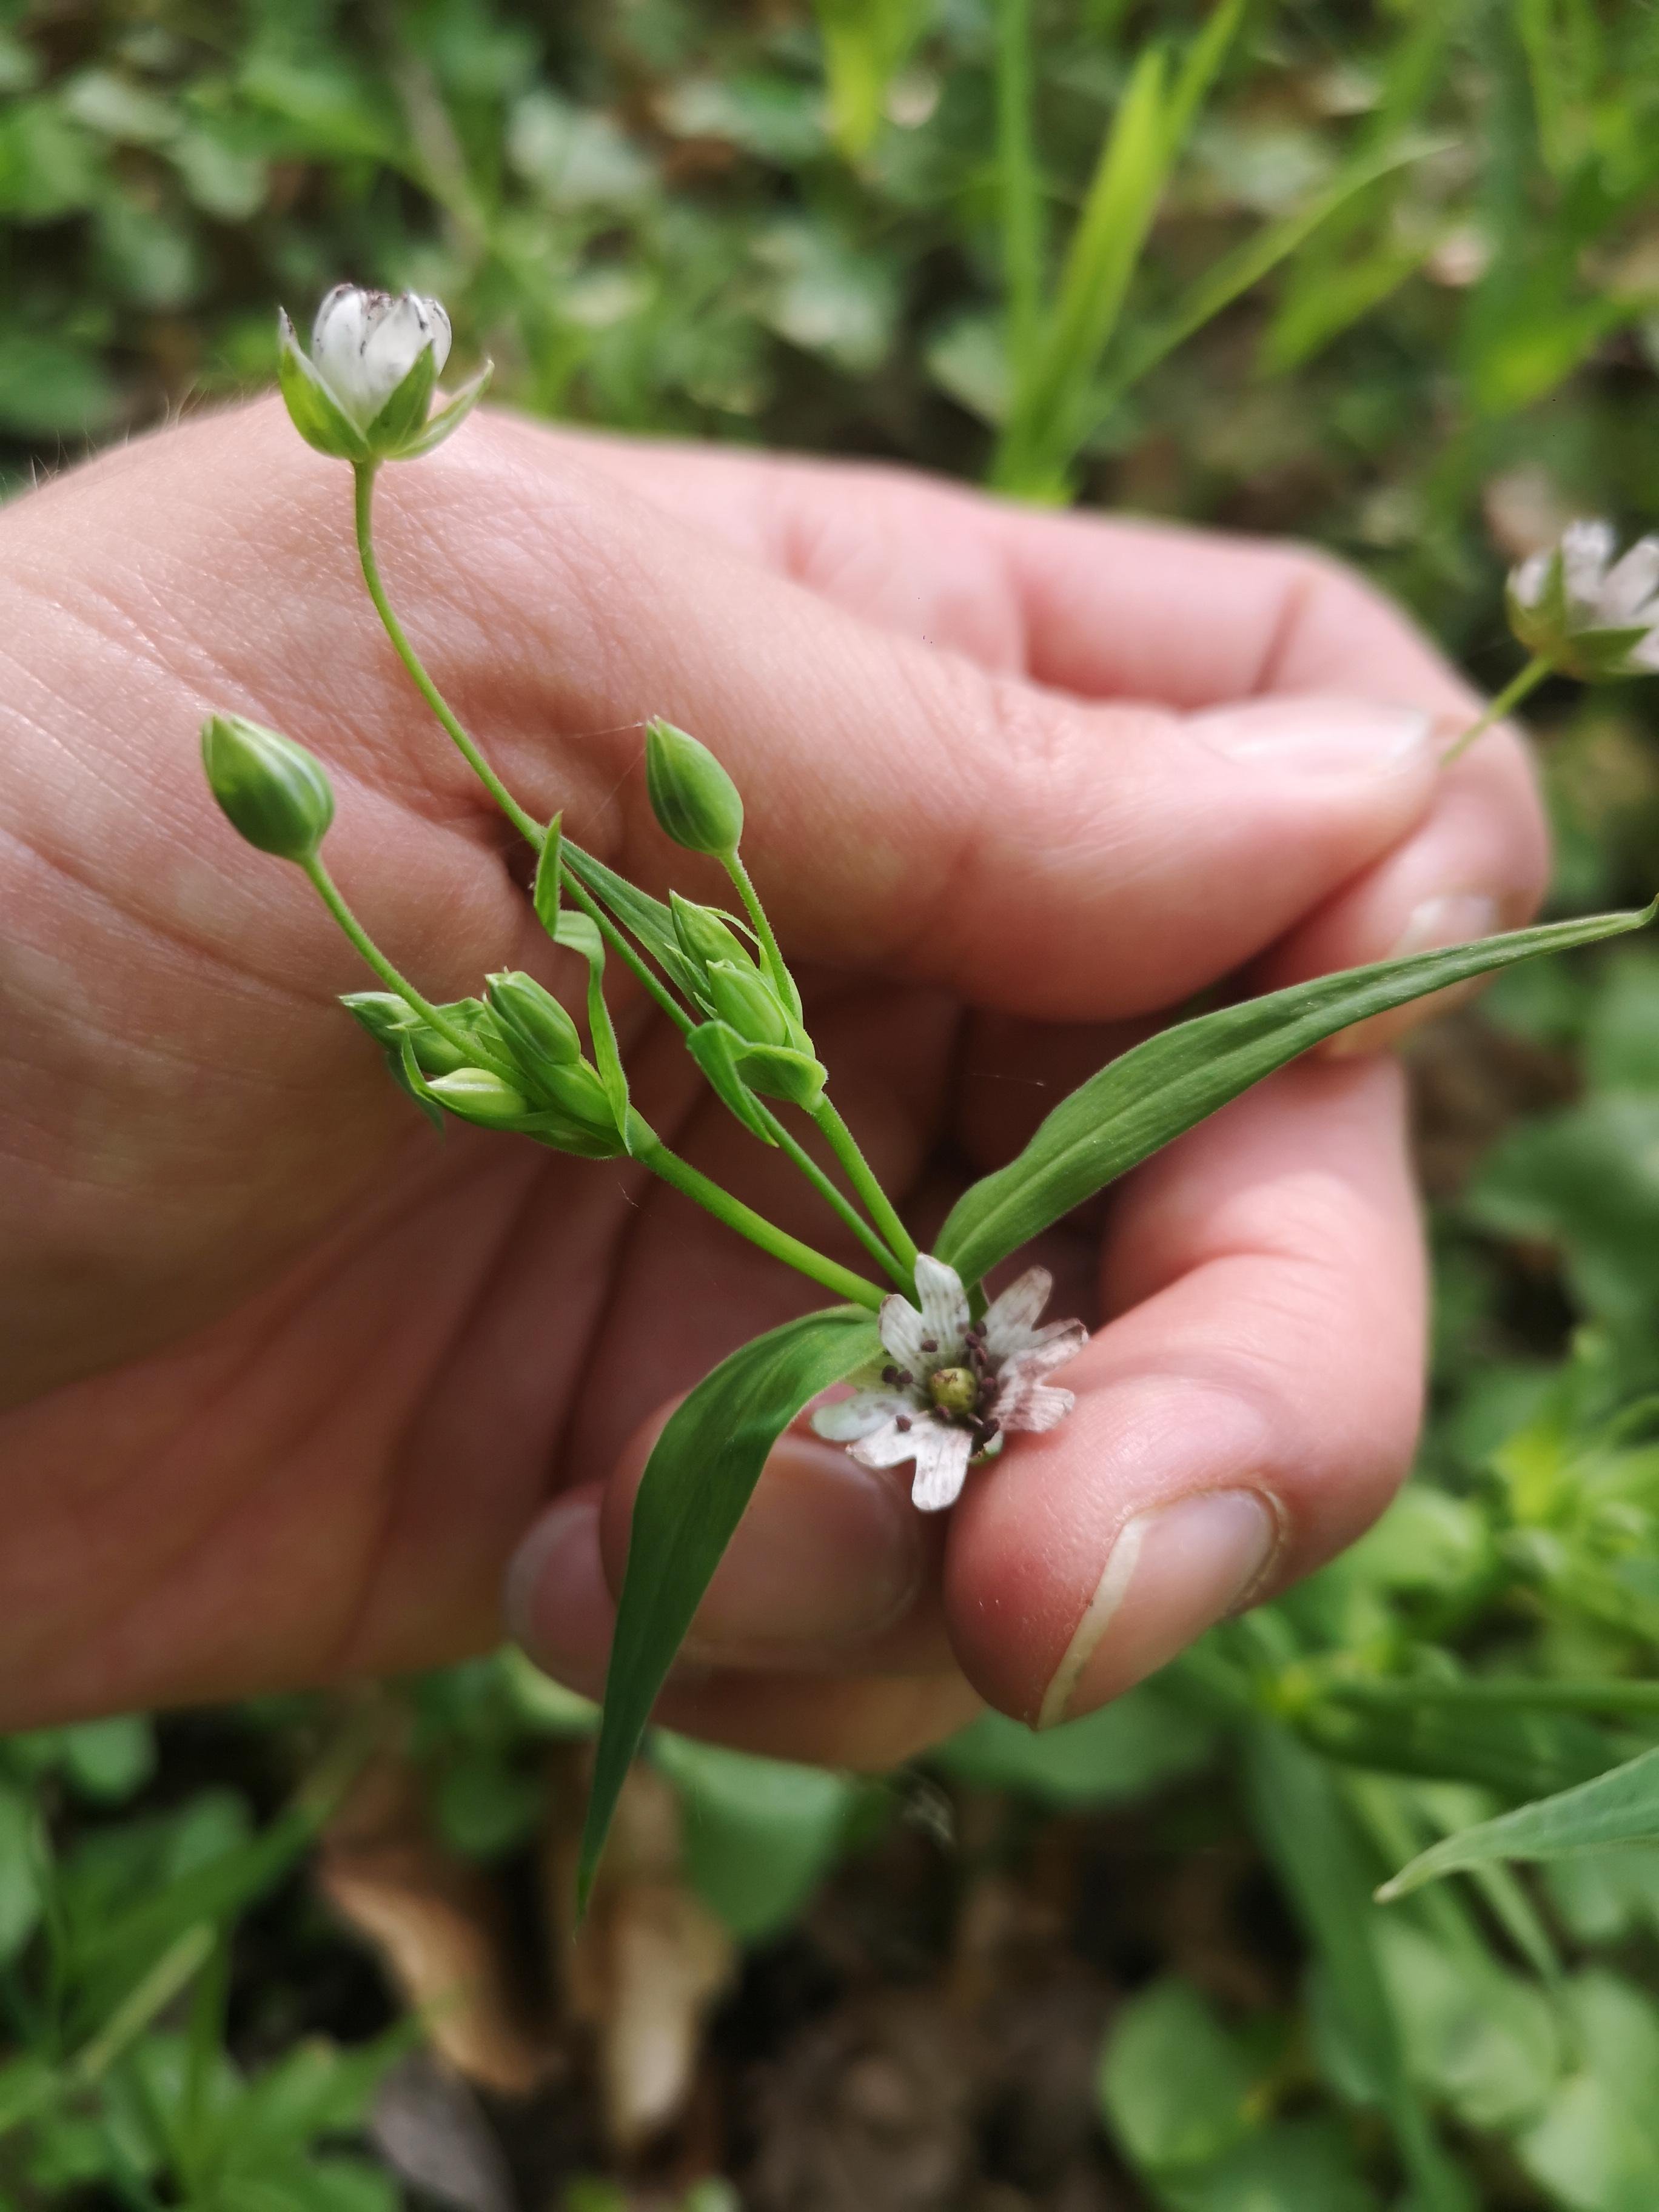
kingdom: Fungi
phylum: Basidiomycota
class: Microbotryomycetes
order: Microbotryales
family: Microbotryaceae
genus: Microbotryum
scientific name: Microbotryum stellariae
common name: fladstjerne-støvbladrust
